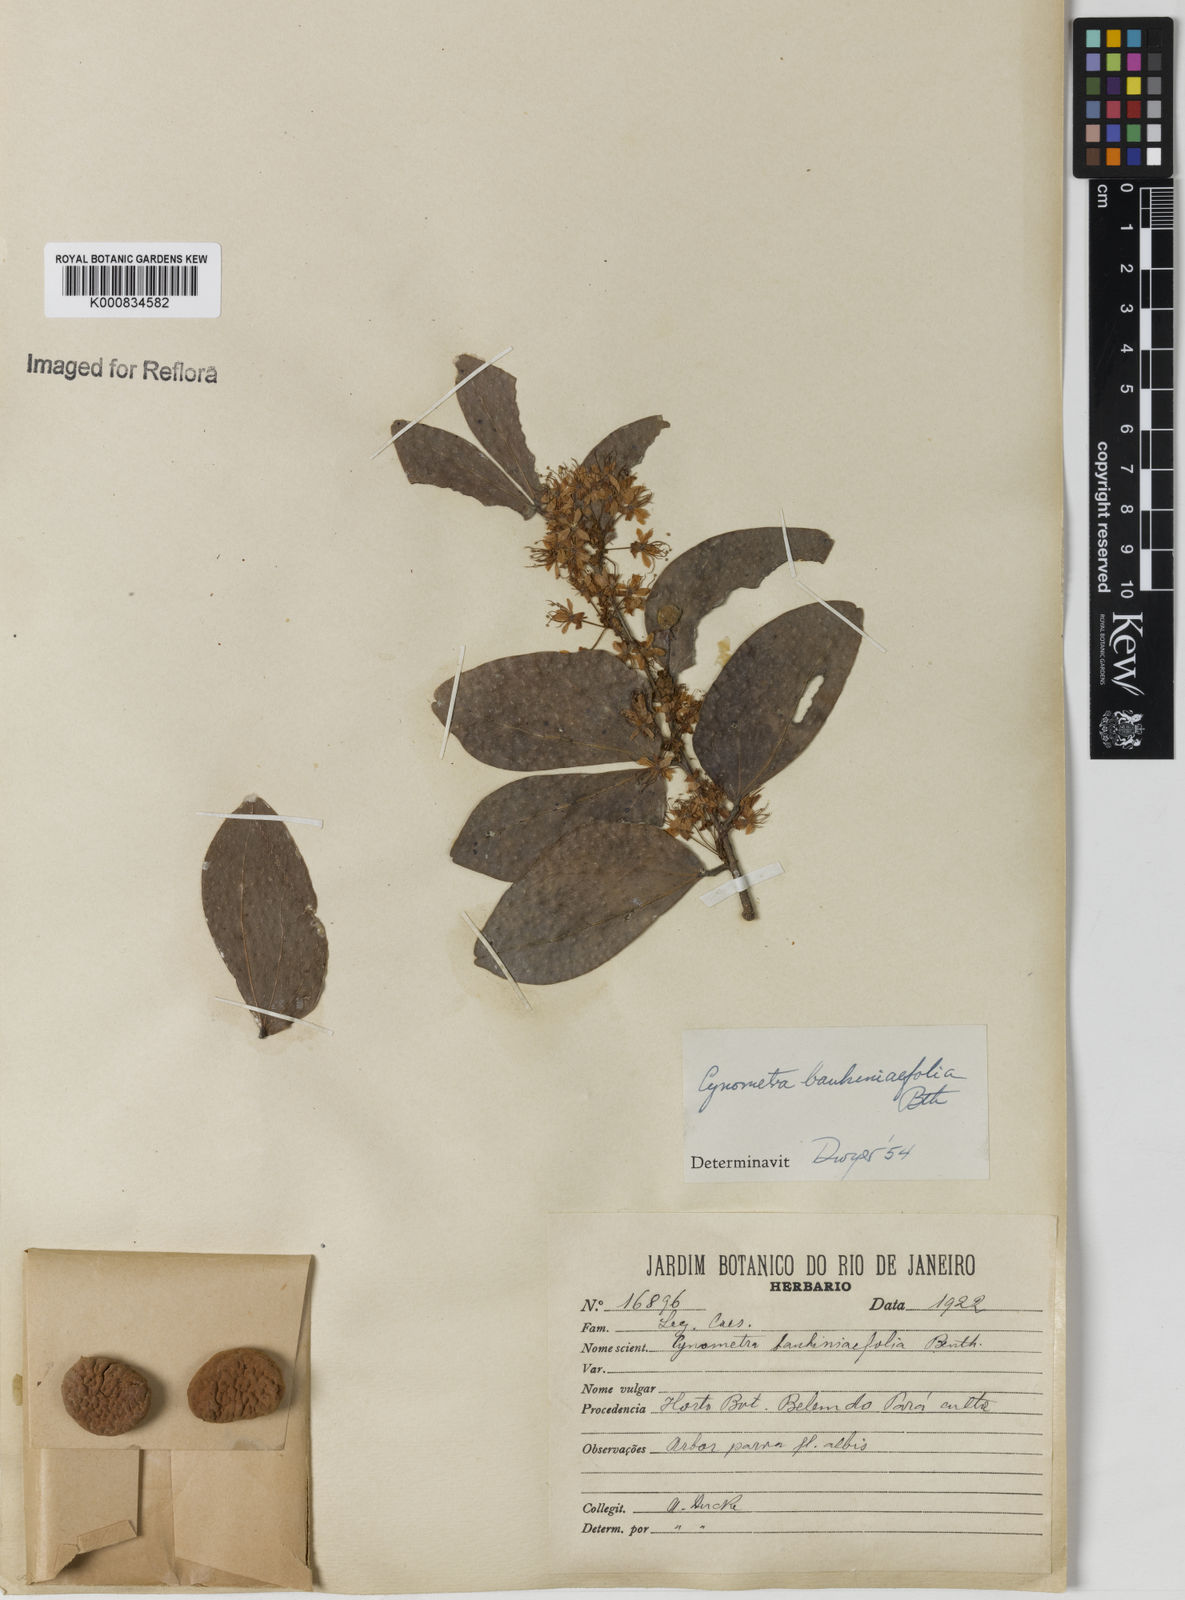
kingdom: Plantae
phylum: Tracheophyta
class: Magnoliopsida
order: Fabales
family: Fabaceae
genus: Cynometra
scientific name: Cynometra bauhiniifolia
